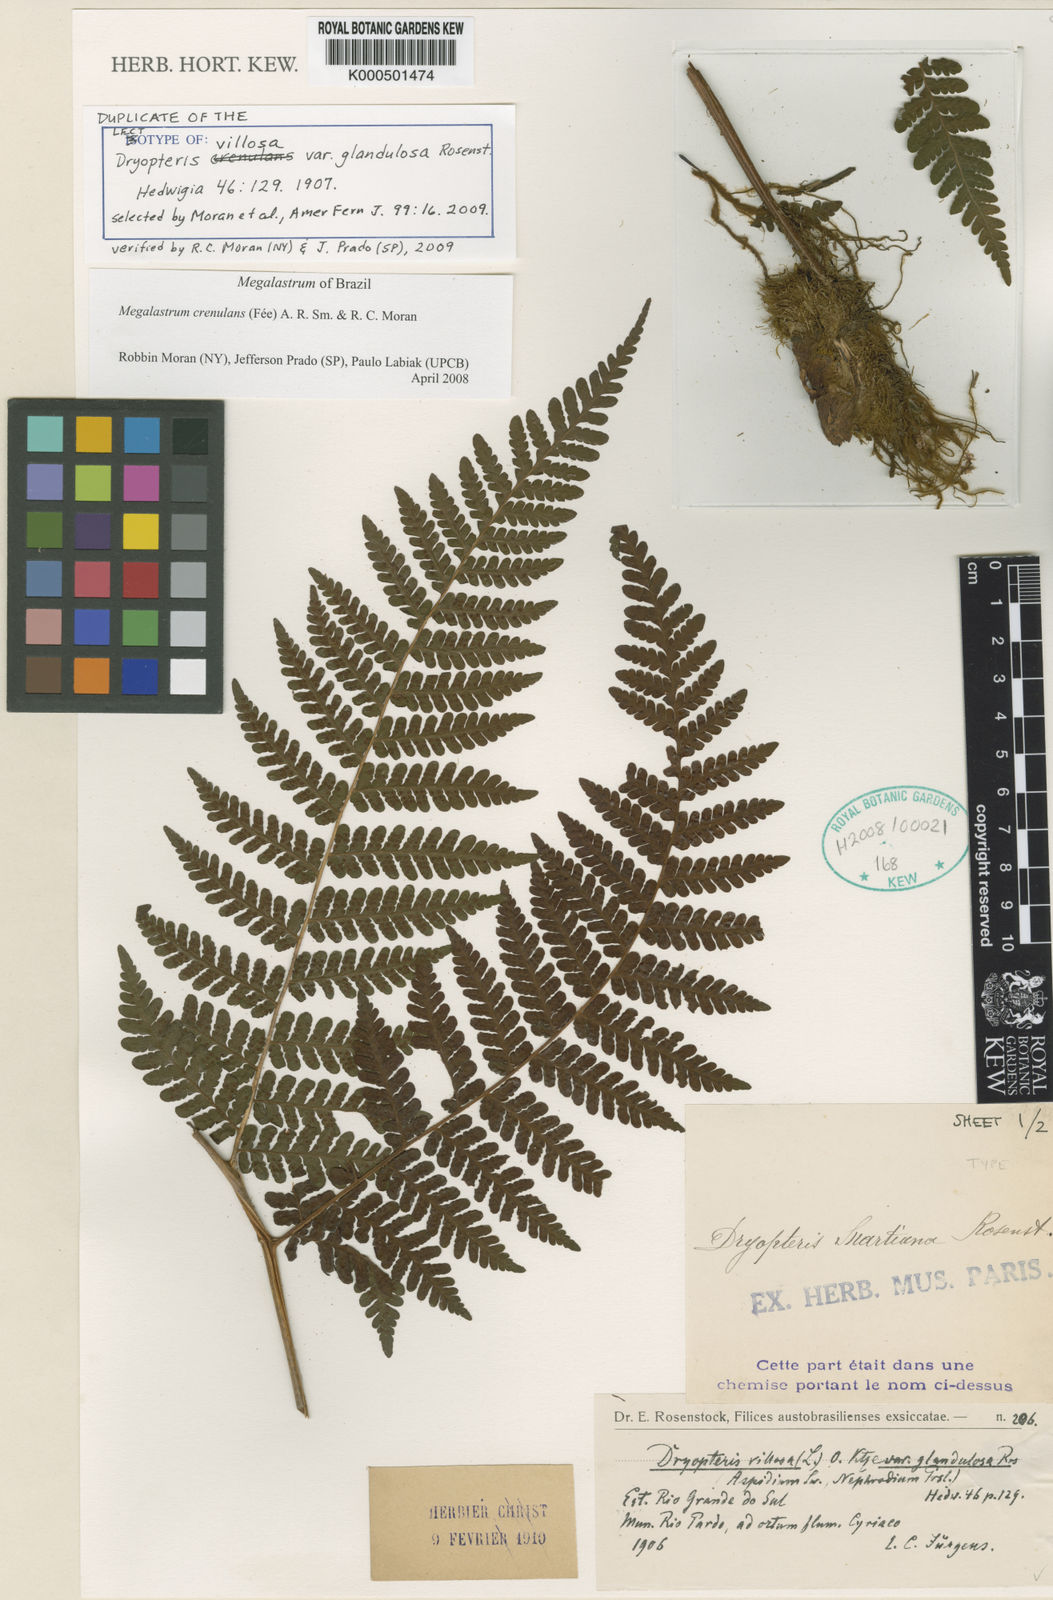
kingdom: Plantae
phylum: Tracheophyta
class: Polypodiopsida
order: Polypodiales
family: Dryopteridaceae
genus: Megalastrum
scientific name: Megalastrum
